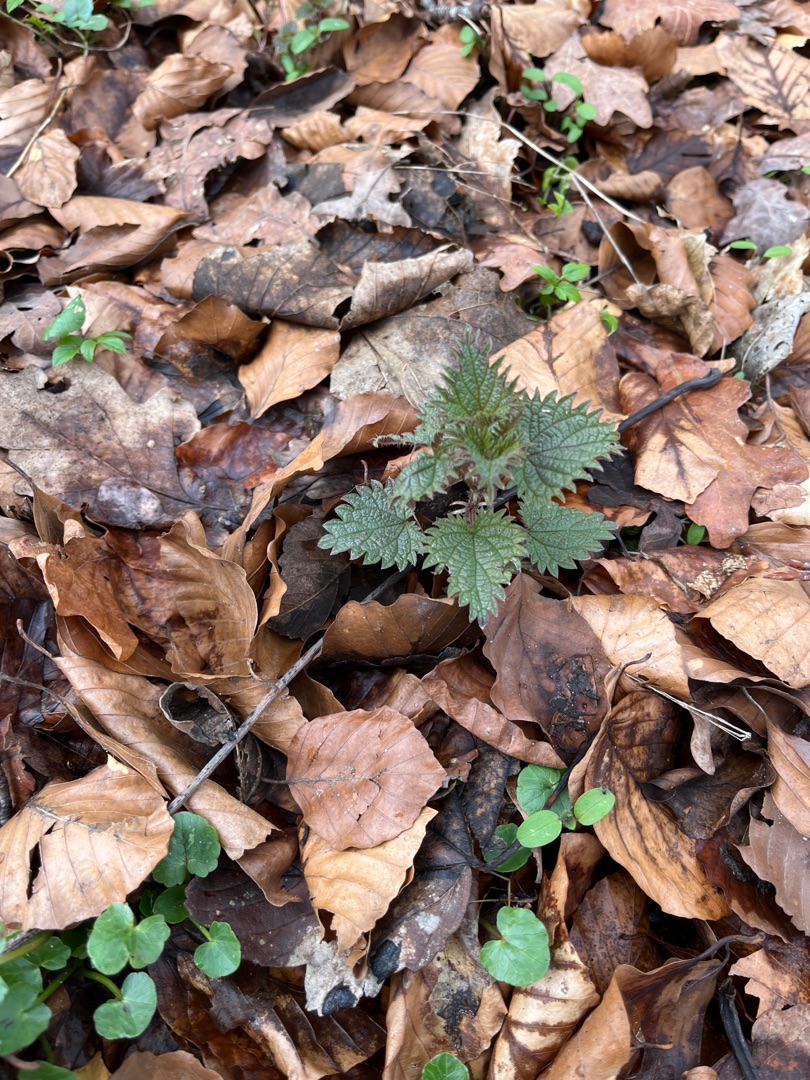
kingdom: Plantae
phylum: Tracheophyta
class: Magnoliopsida
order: Rosales
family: Urticaceae
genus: Urtica
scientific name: Urtica dioica
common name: Stor nælde
